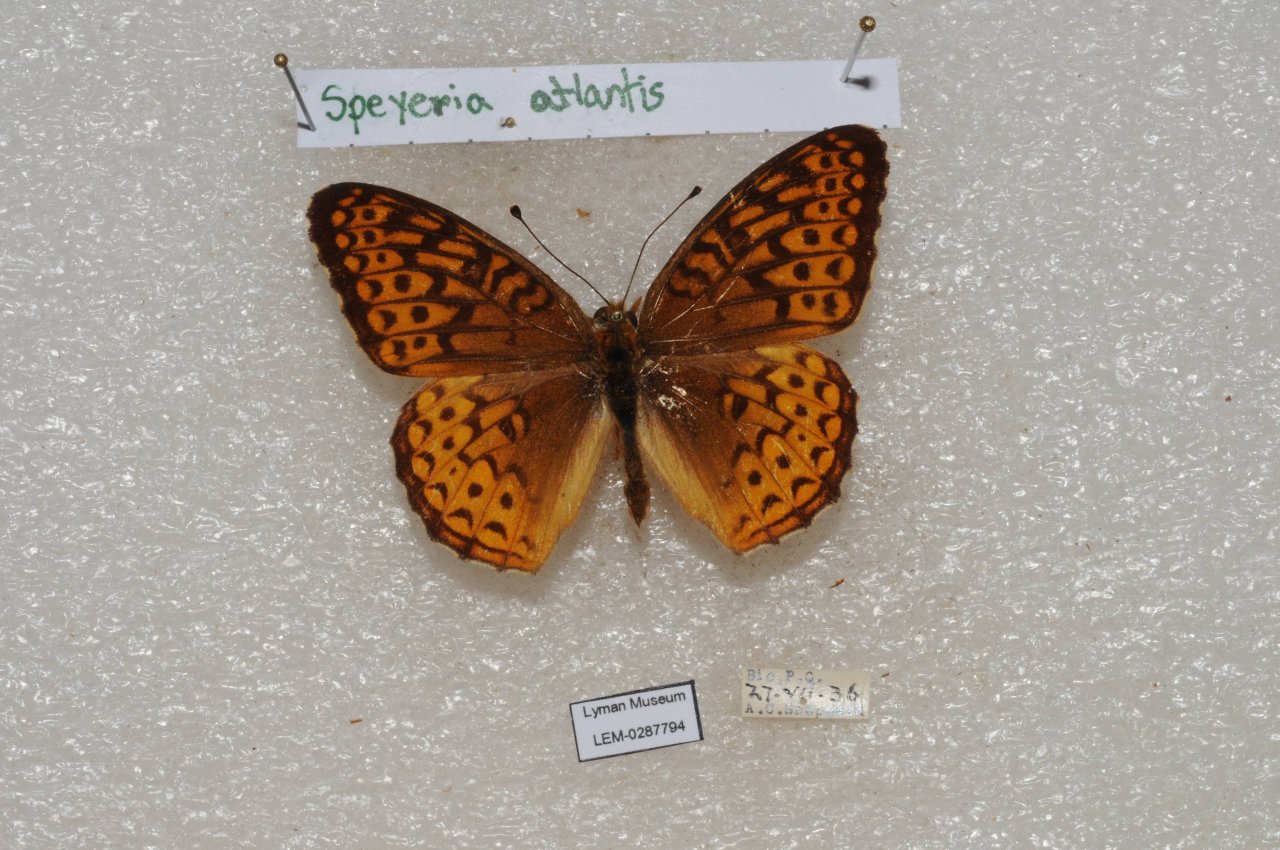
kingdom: Animalia
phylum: Arthropoda
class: Insecta
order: Lepidoptera
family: Nymphalidae
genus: Speyeria
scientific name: Speyeria atlantis
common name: Atlantis Fritillary
